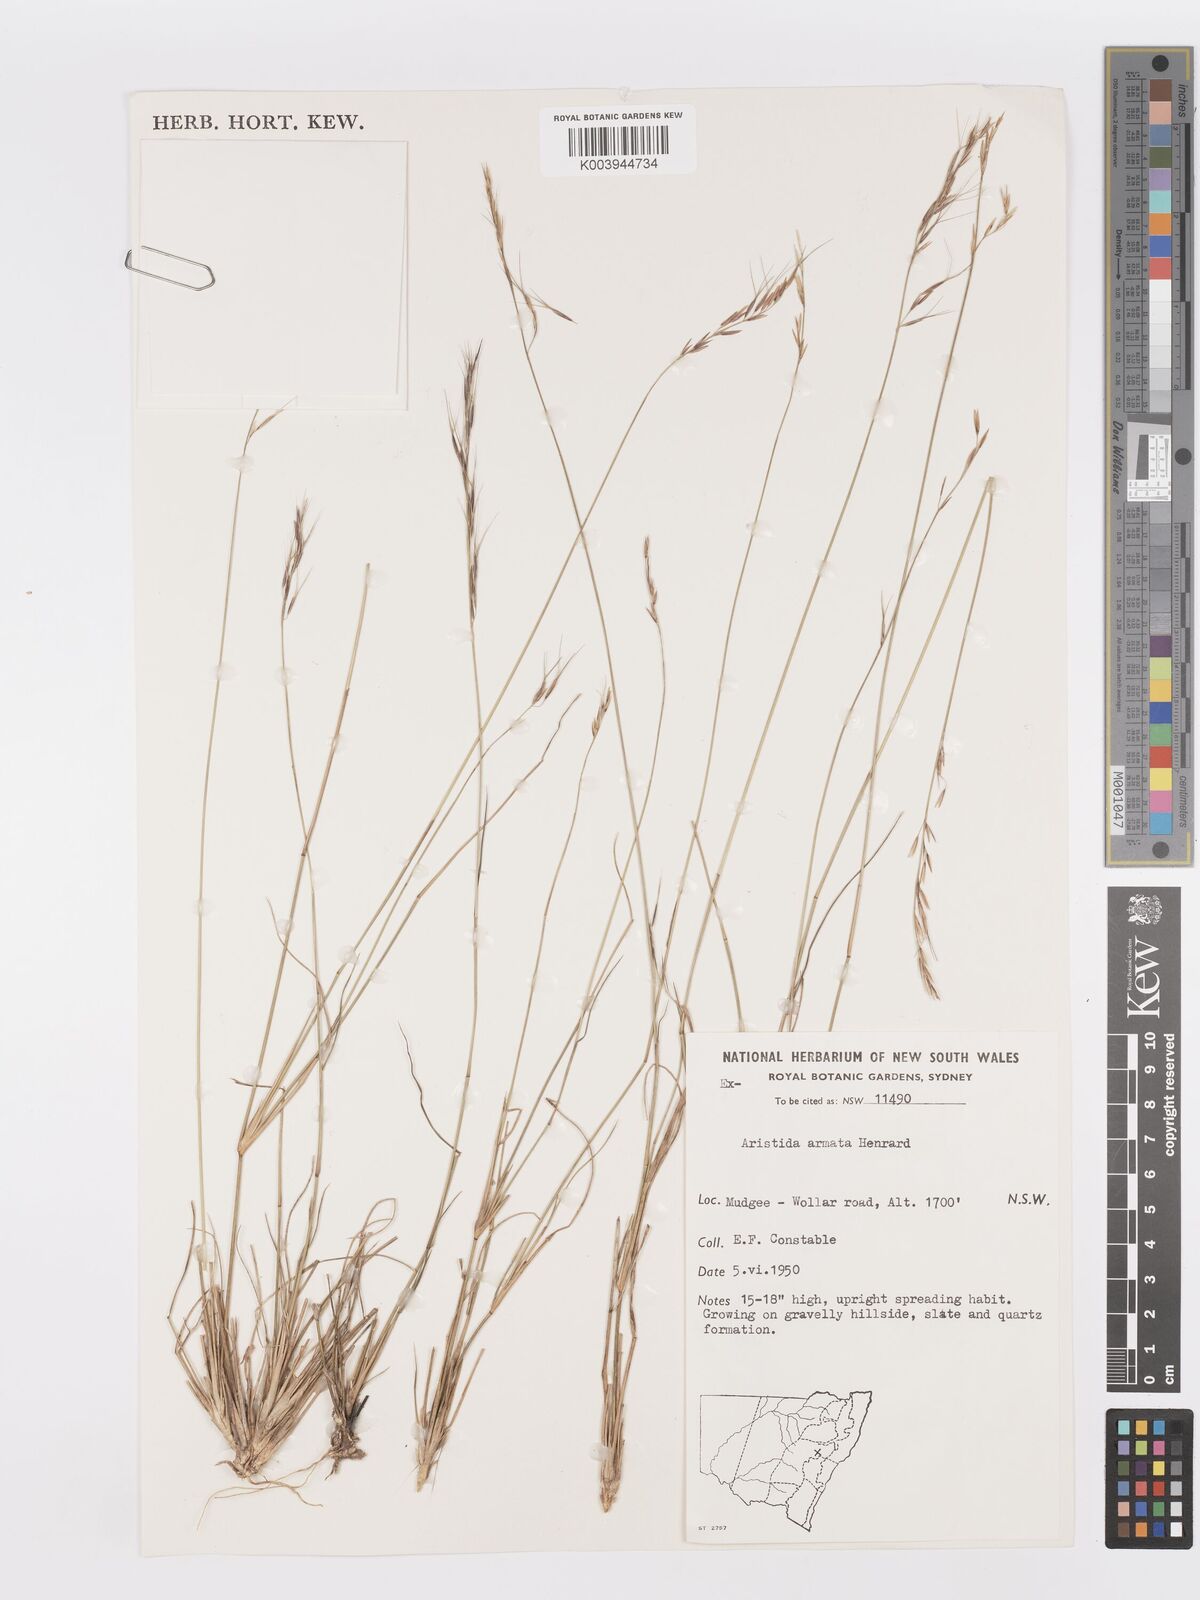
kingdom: Plantae
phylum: Tracheophyta
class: Liliopsida
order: Poales
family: Poaceae
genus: Aristida
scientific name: Aristida calycina
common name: Dark wire grass
